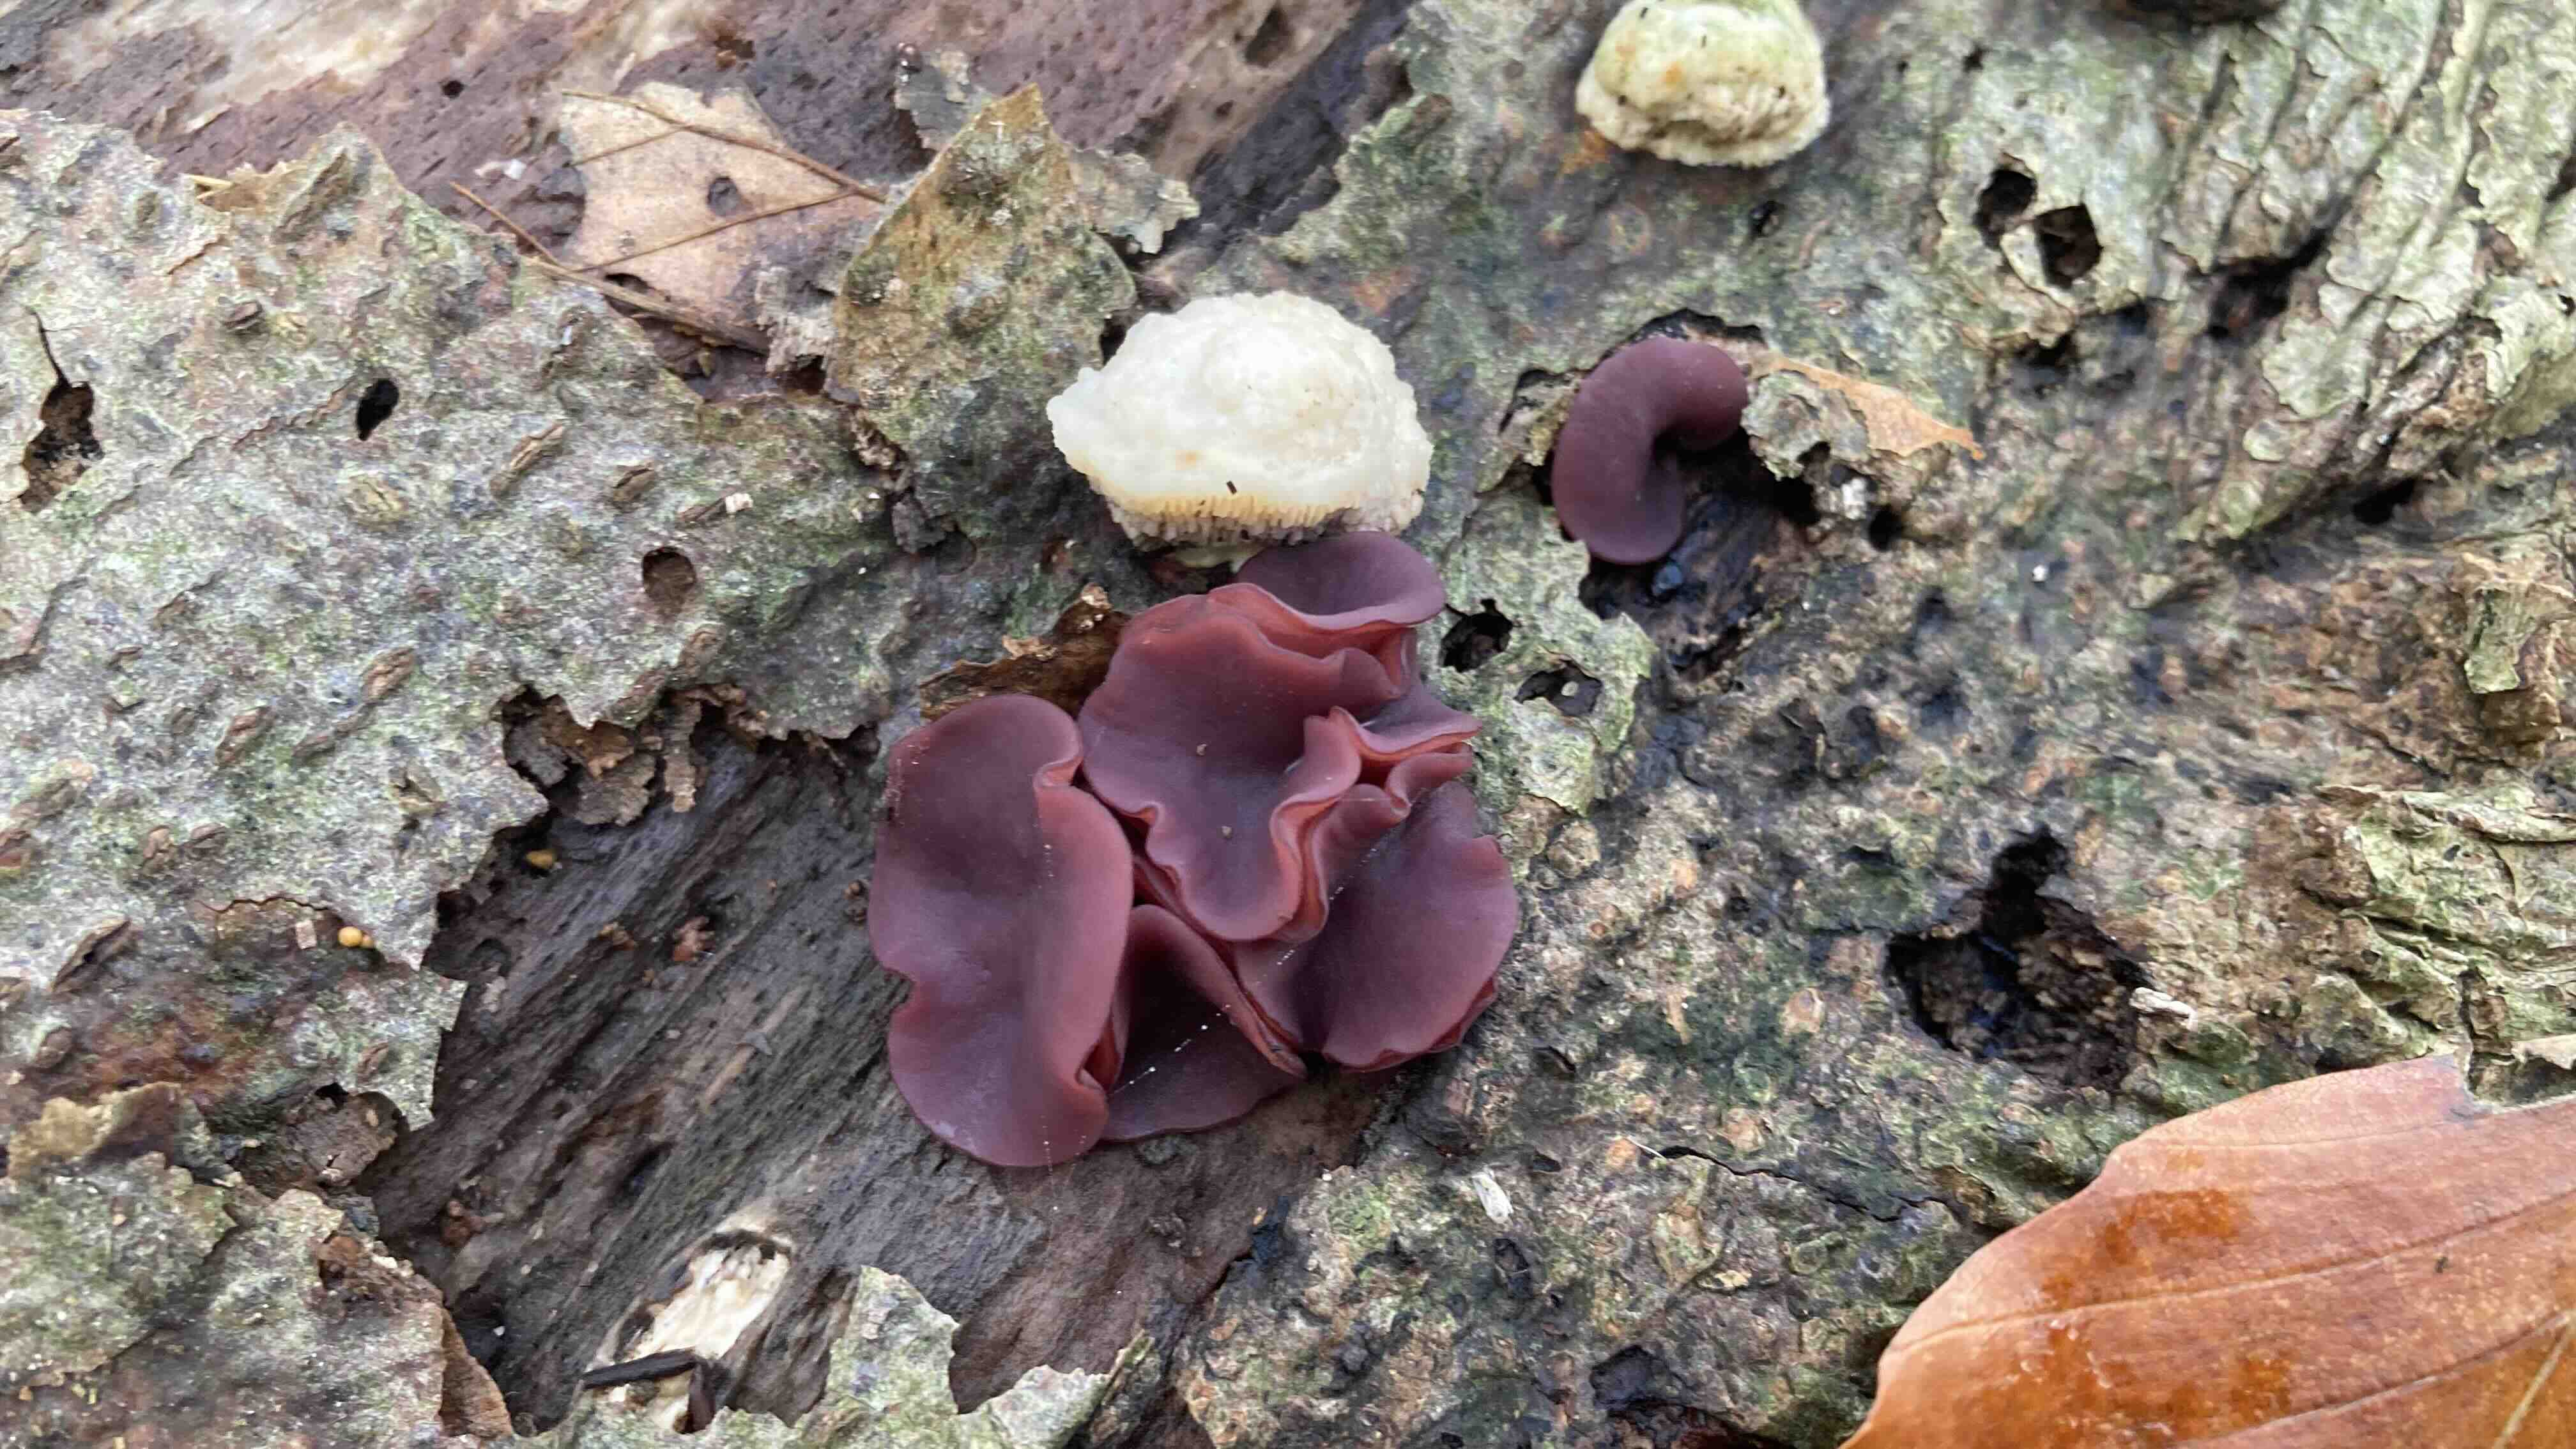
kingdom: Fungi
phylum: Ascomycota
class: Leotiomycetes
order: Helotiales
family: Gelatinodiscaceae
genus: Ascocoryne
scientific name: Ascocoryne cylichnium
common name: stor sejskive
